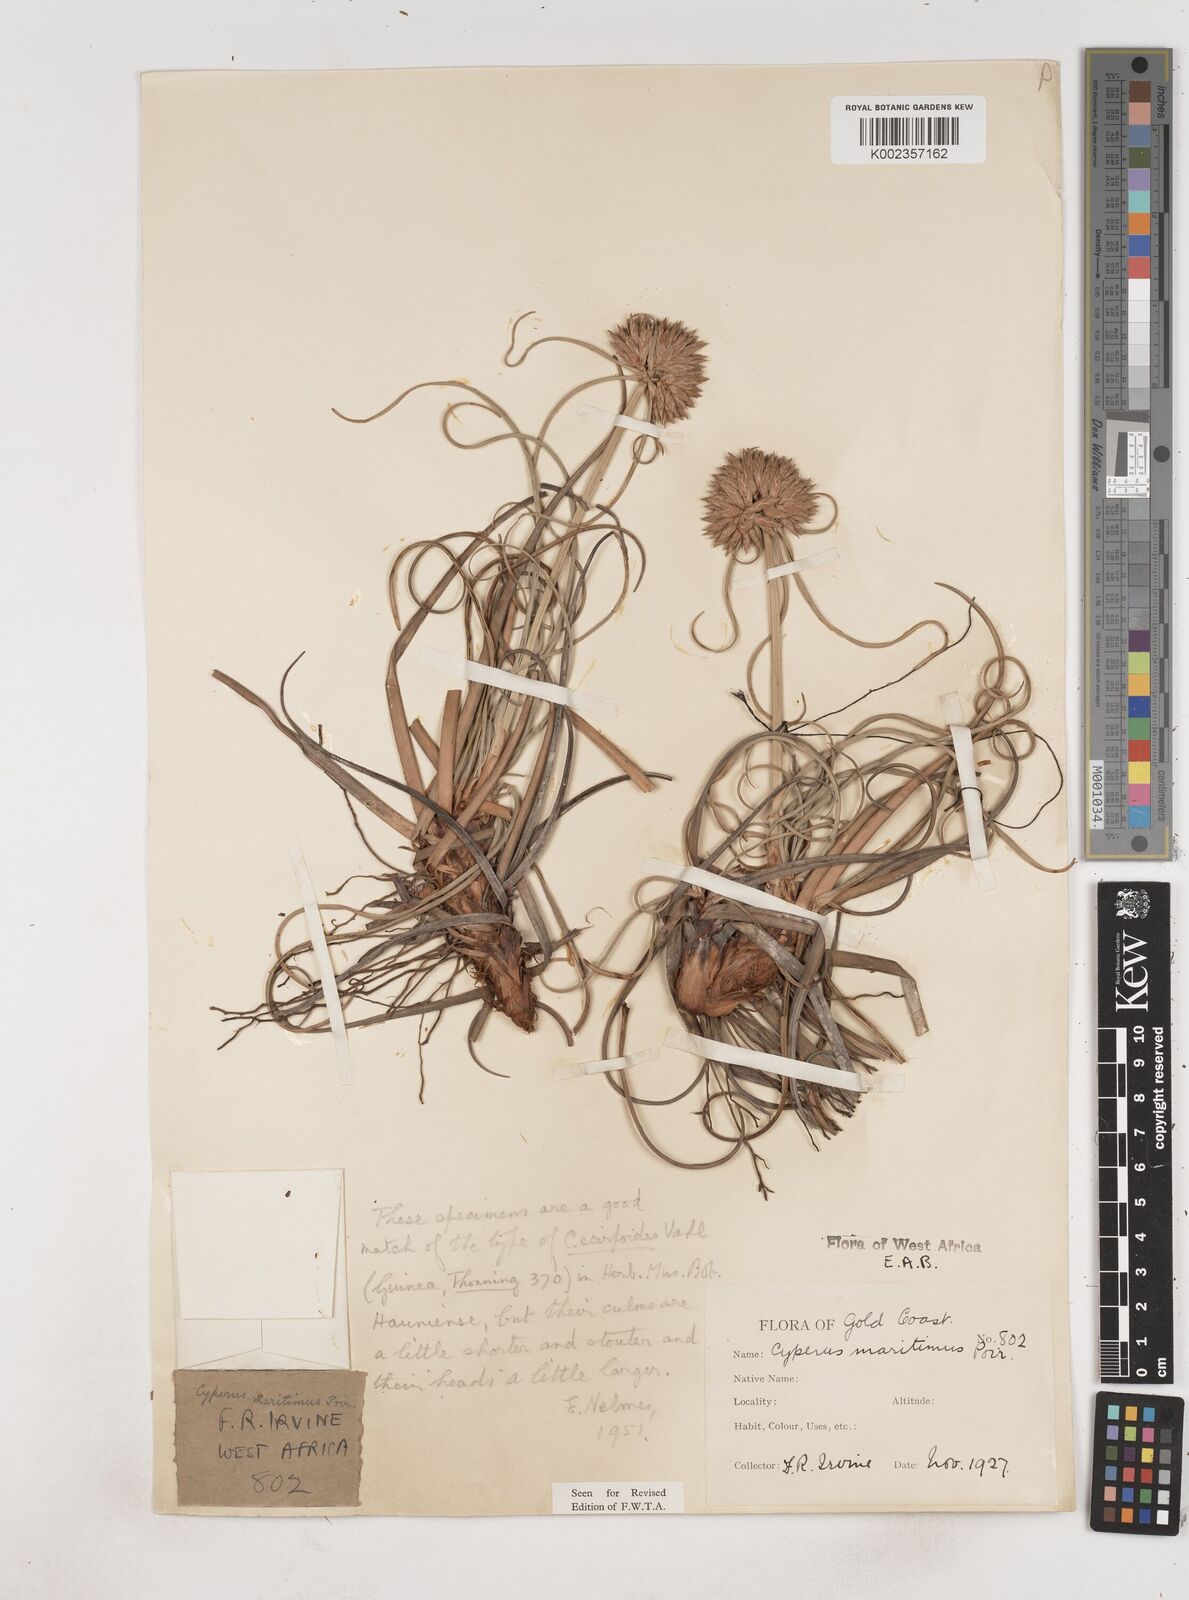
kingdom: Plantae
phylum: Tracheophyta
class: Liliopsida
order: Poales
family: Cyperaceae
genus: Cyperus
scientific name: Cyperus crassipes
